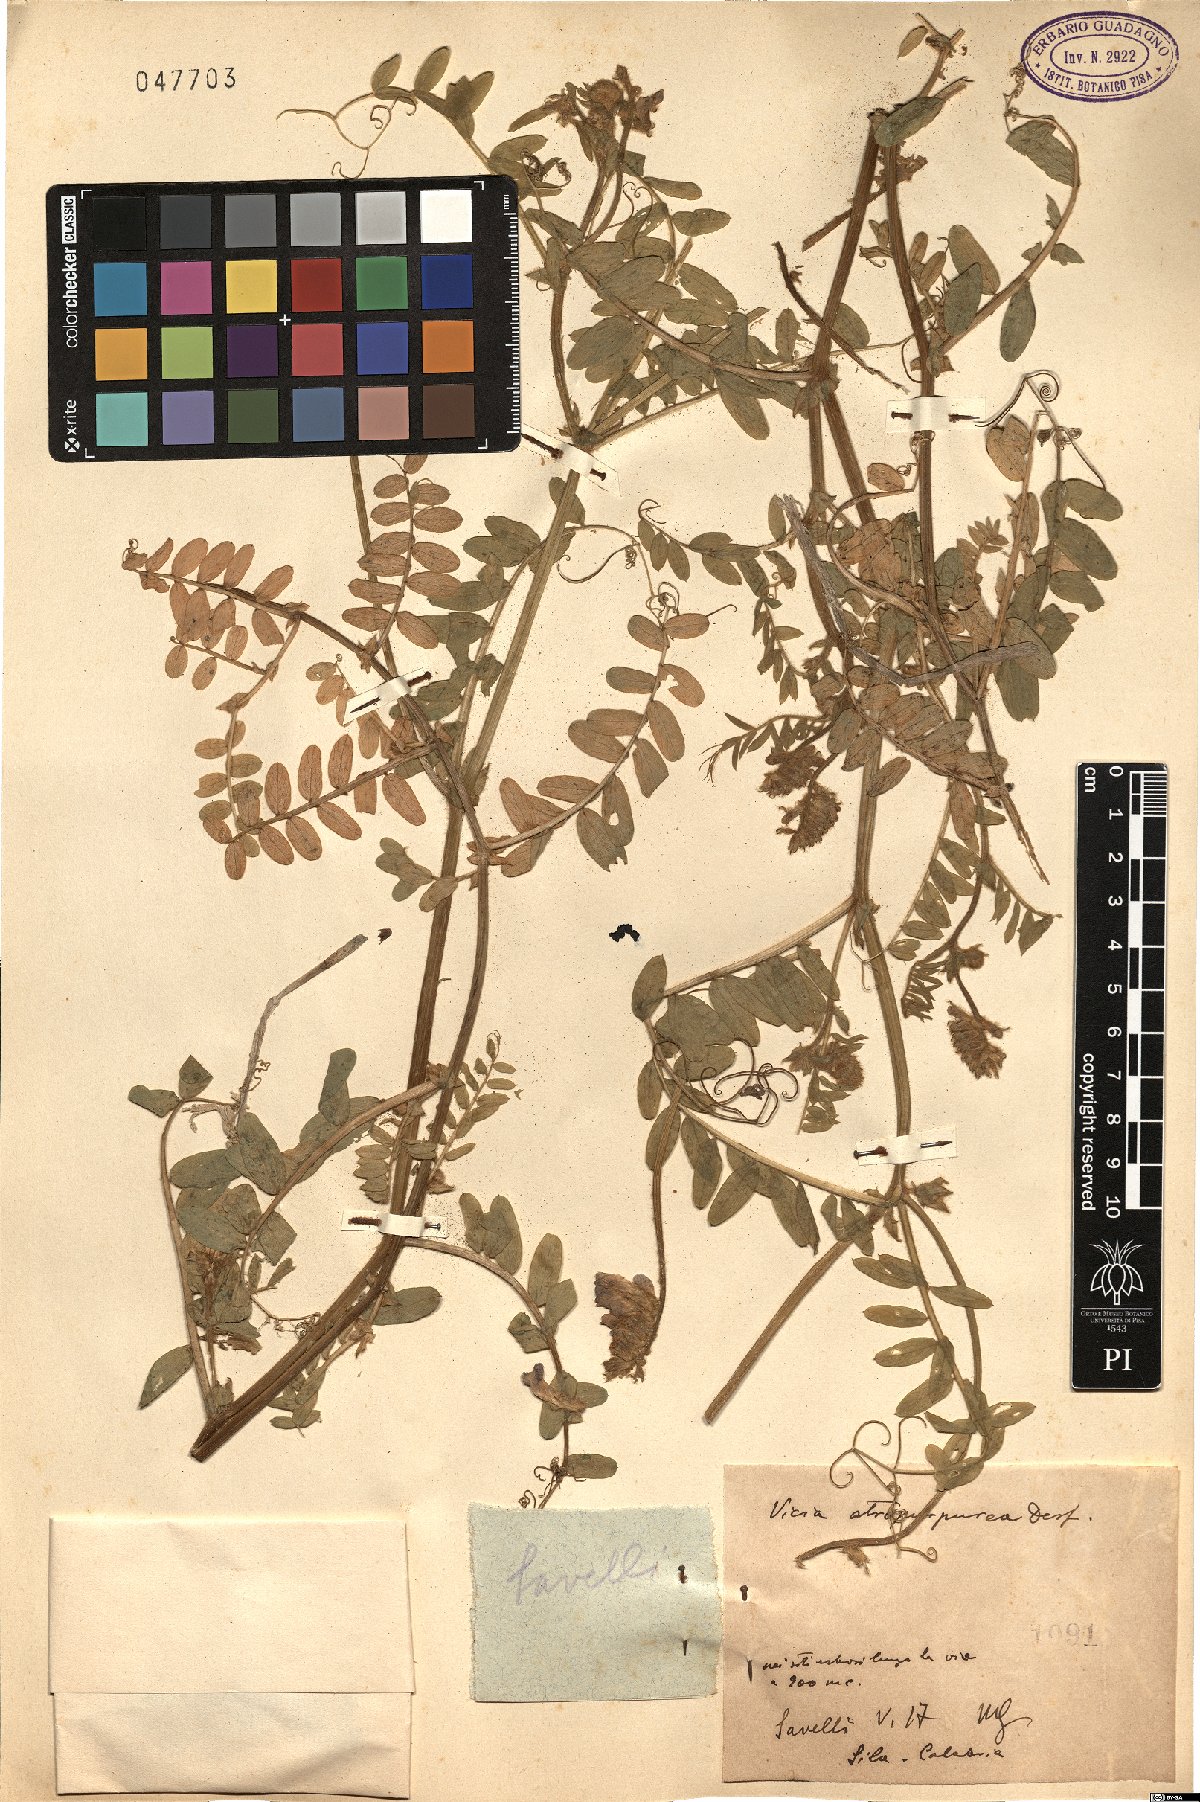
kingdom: Plantae
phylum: Tracheophyta
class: Magnoliopsida
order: Fabales
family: Fabaceae
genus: Vicia
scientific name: Vicia benghalensis
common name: Purple vetch
